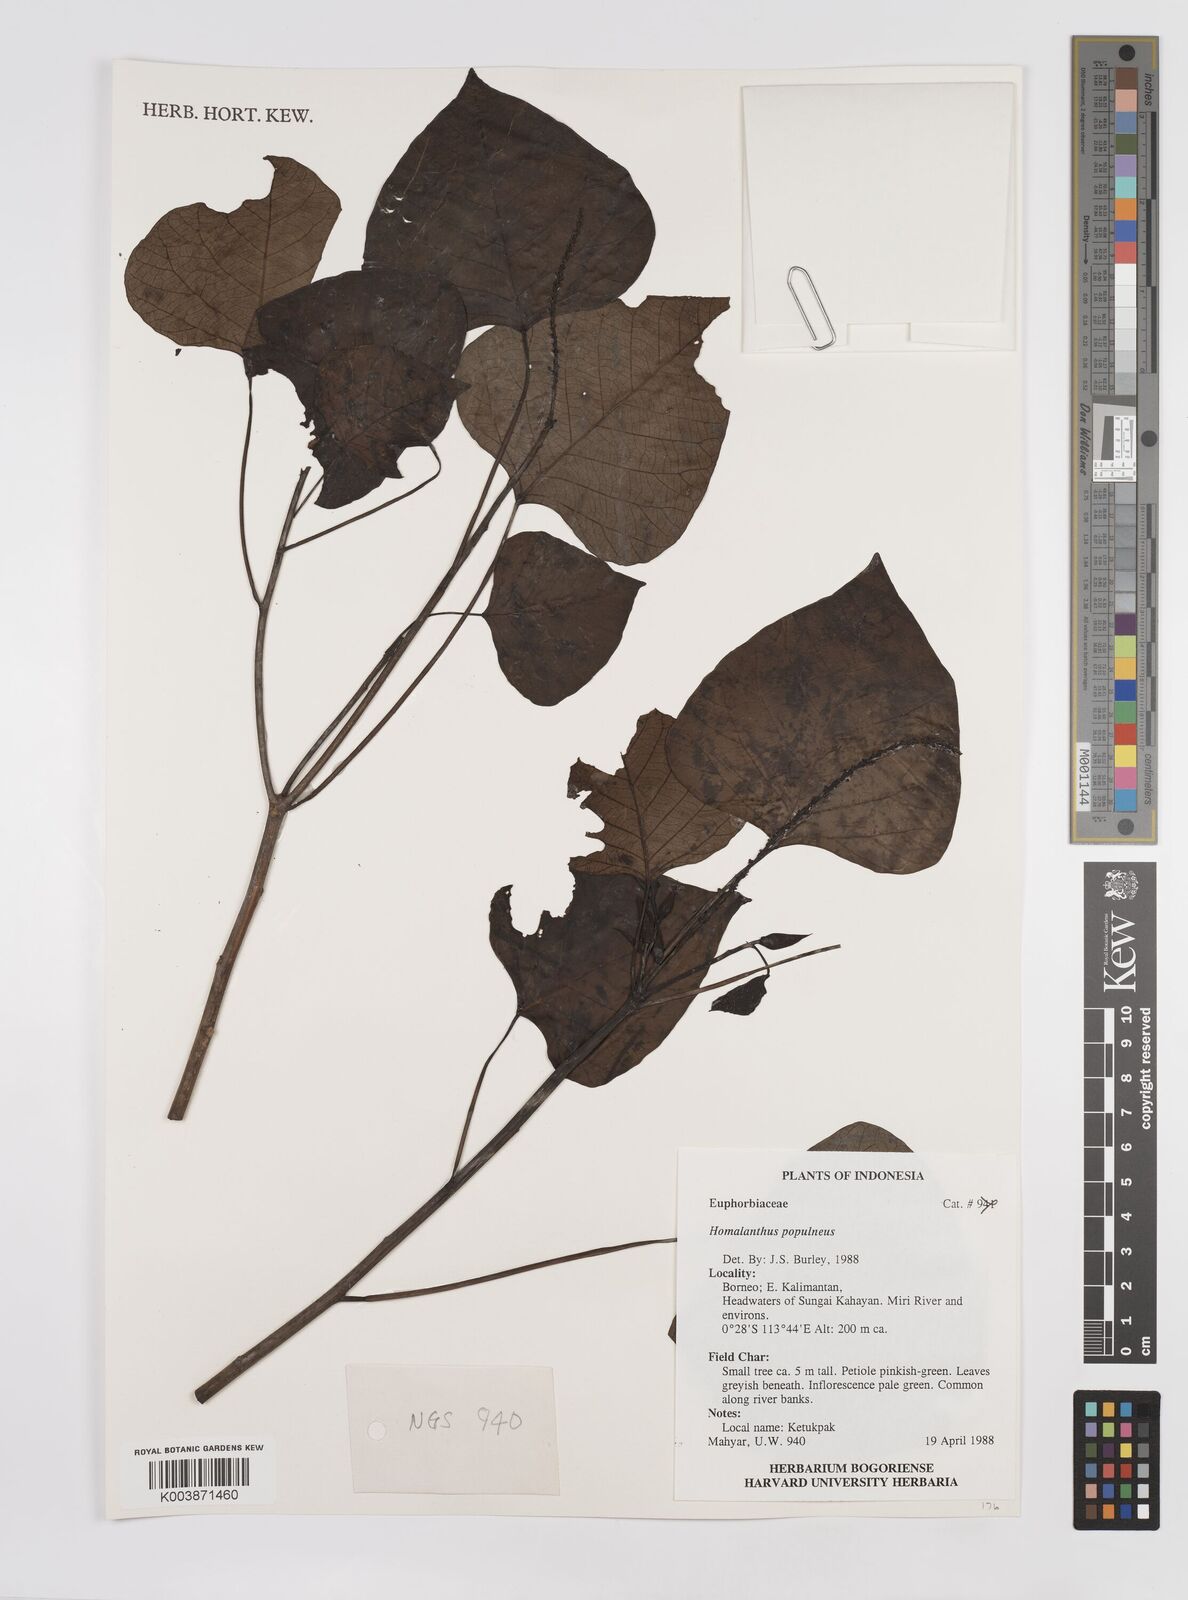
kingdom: Plantae
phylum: Tracheophyta
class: Magnoliopsida
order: Malpighiales
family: Euphorbiaceae
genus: Homalanthus
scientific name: Homalanthus populneus
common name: Spurge
